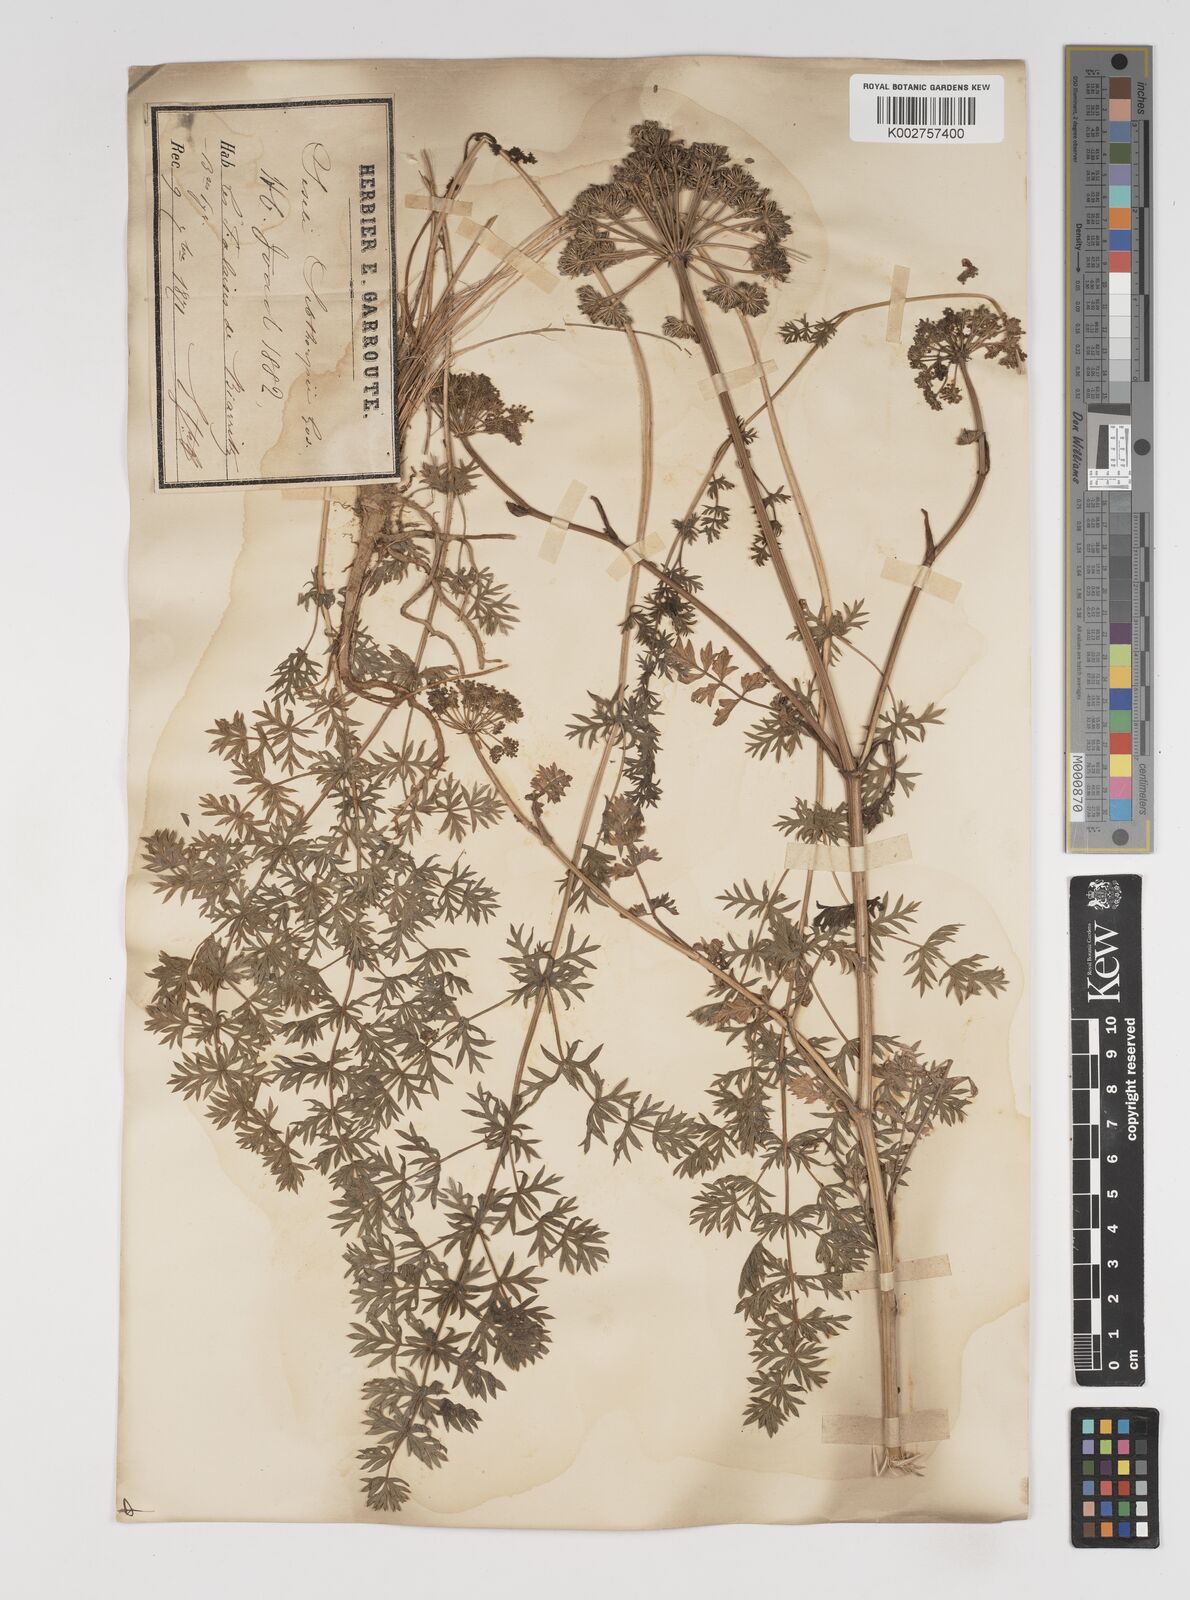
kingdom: Plantae
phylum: Tracheophyta
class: Magnoliopsida
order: Apiales
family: Apiaceae
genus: Seseli
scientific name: Seseli
